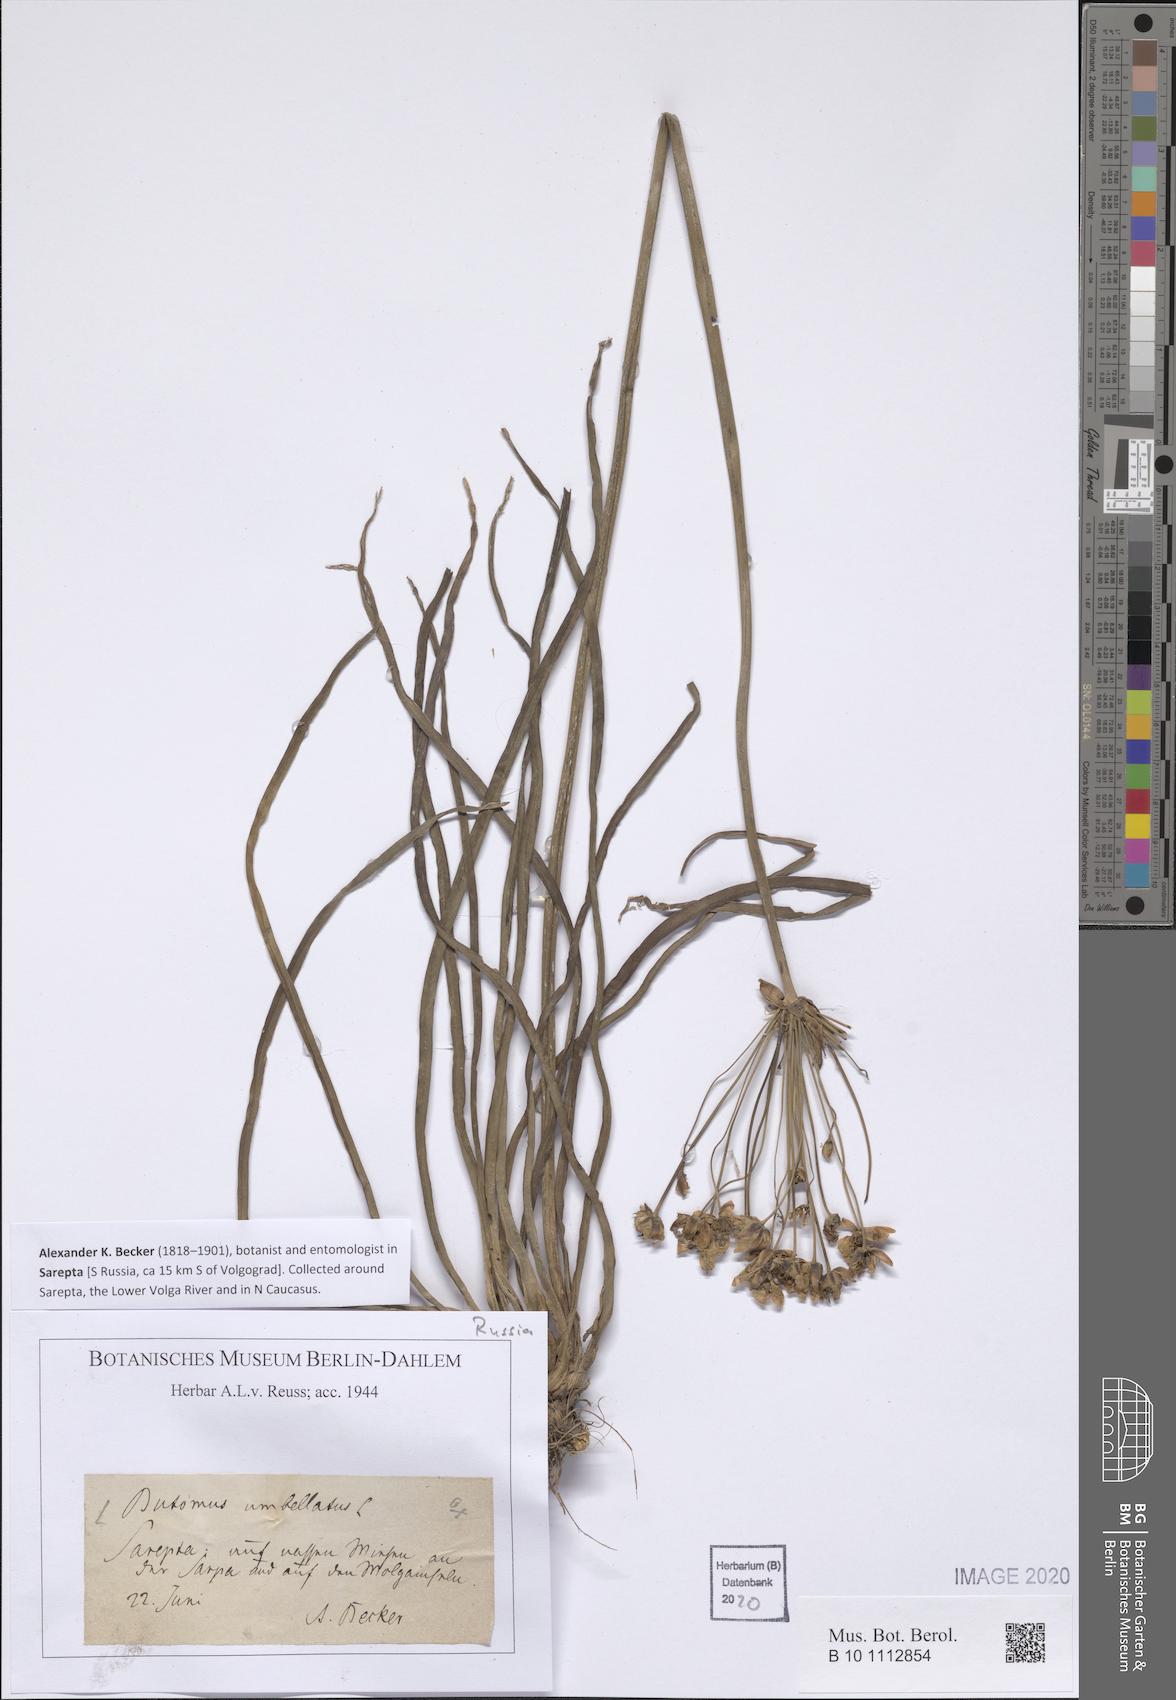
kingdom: Plantae
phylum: Tracheophyta
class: Liliopsida
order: Alismatales
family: Butomaceae
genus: Butomus
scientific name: Butomus umbellatus
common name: Flowering-rush
